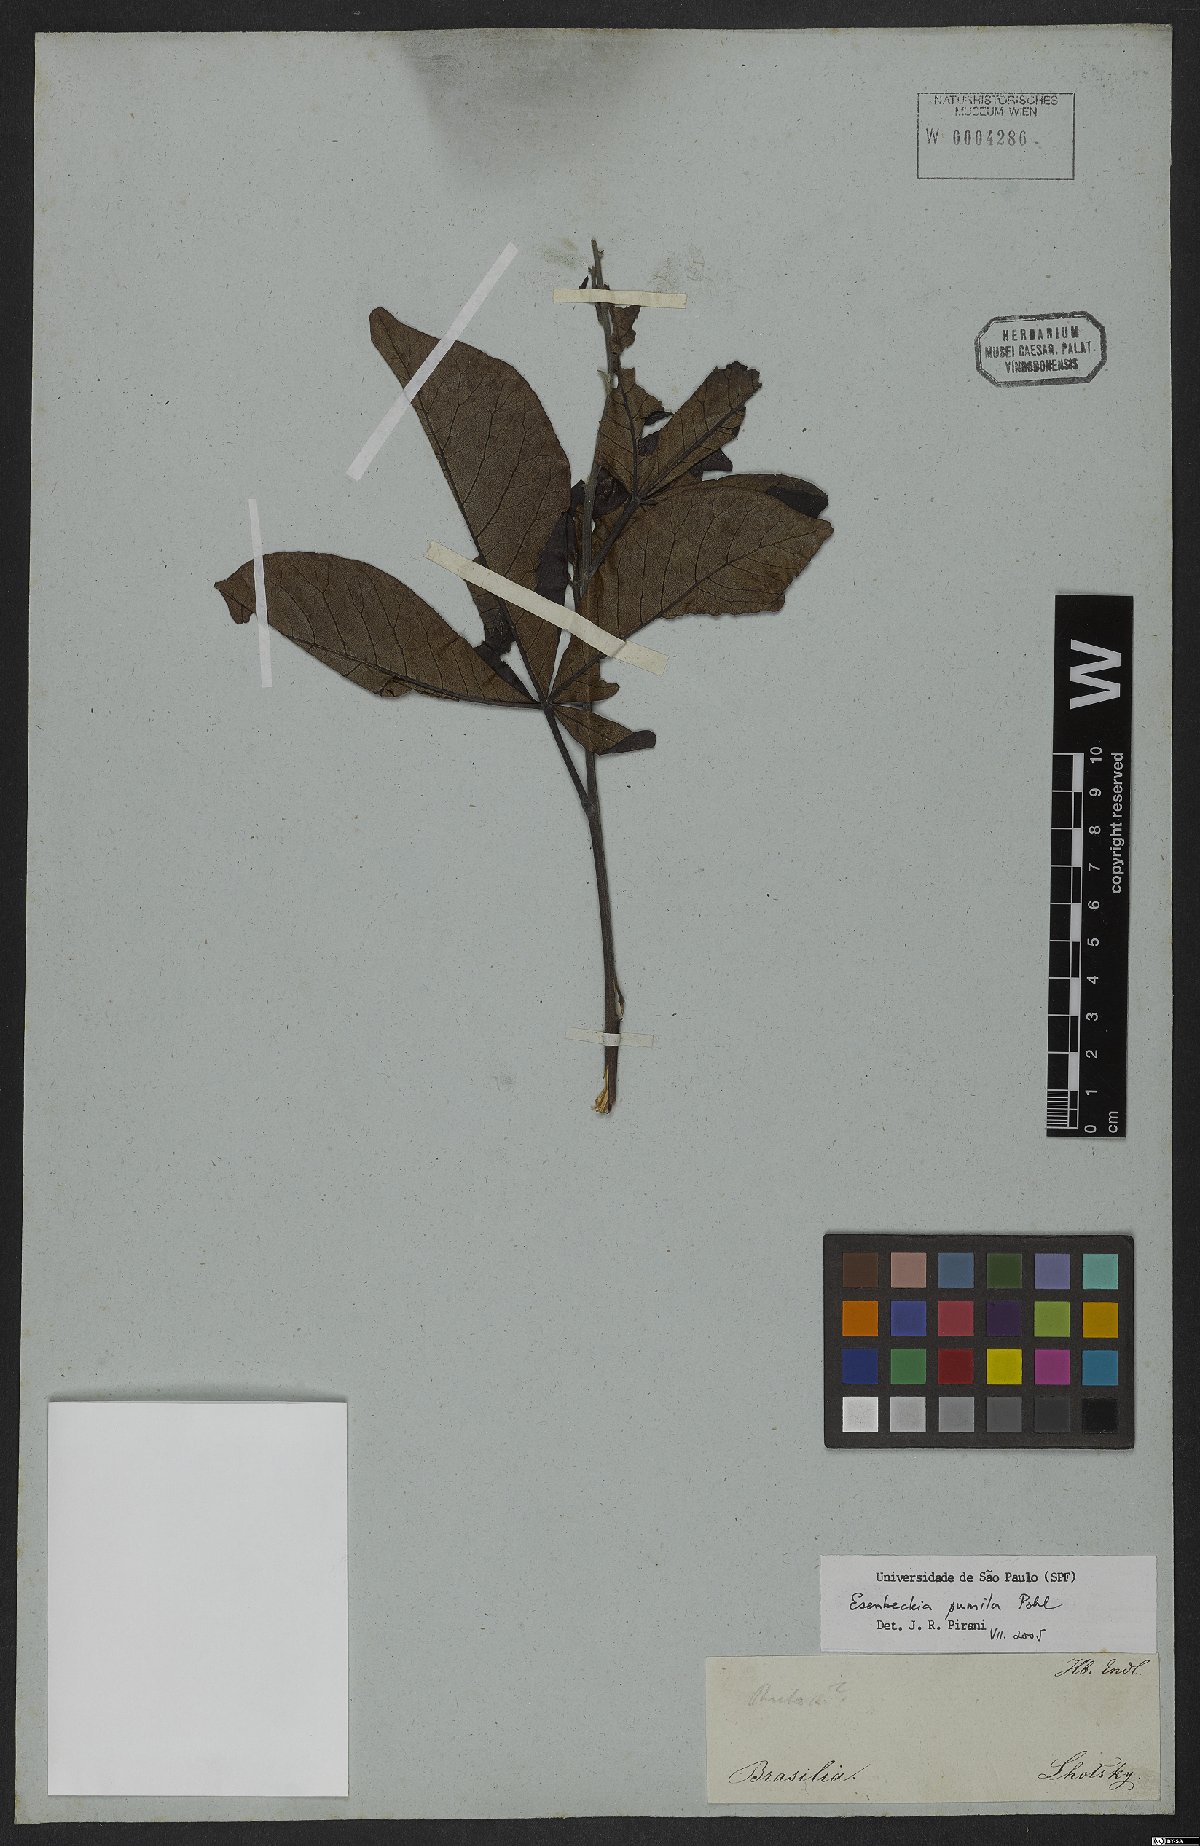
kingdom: Plantae
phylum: Tracheophyta
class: Magnoliopsida
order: Sapindales
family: Rutaceae
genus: Esenbeckia
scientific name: Esenbeckia pumila
